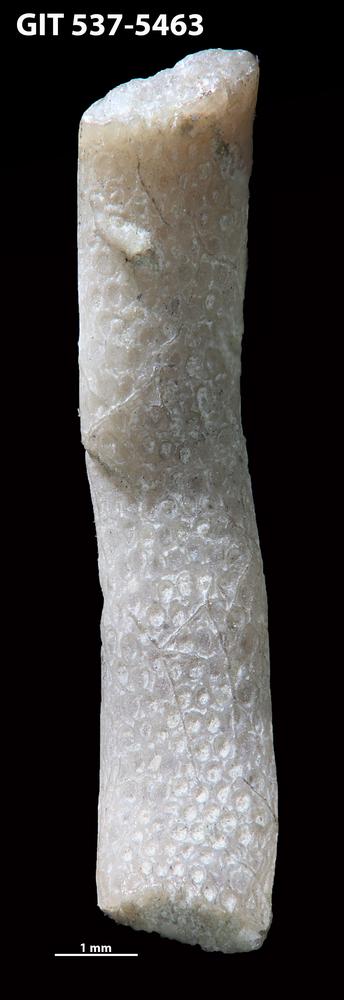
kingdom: Animalia
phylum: Bryozoa
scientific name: Bryozoa
